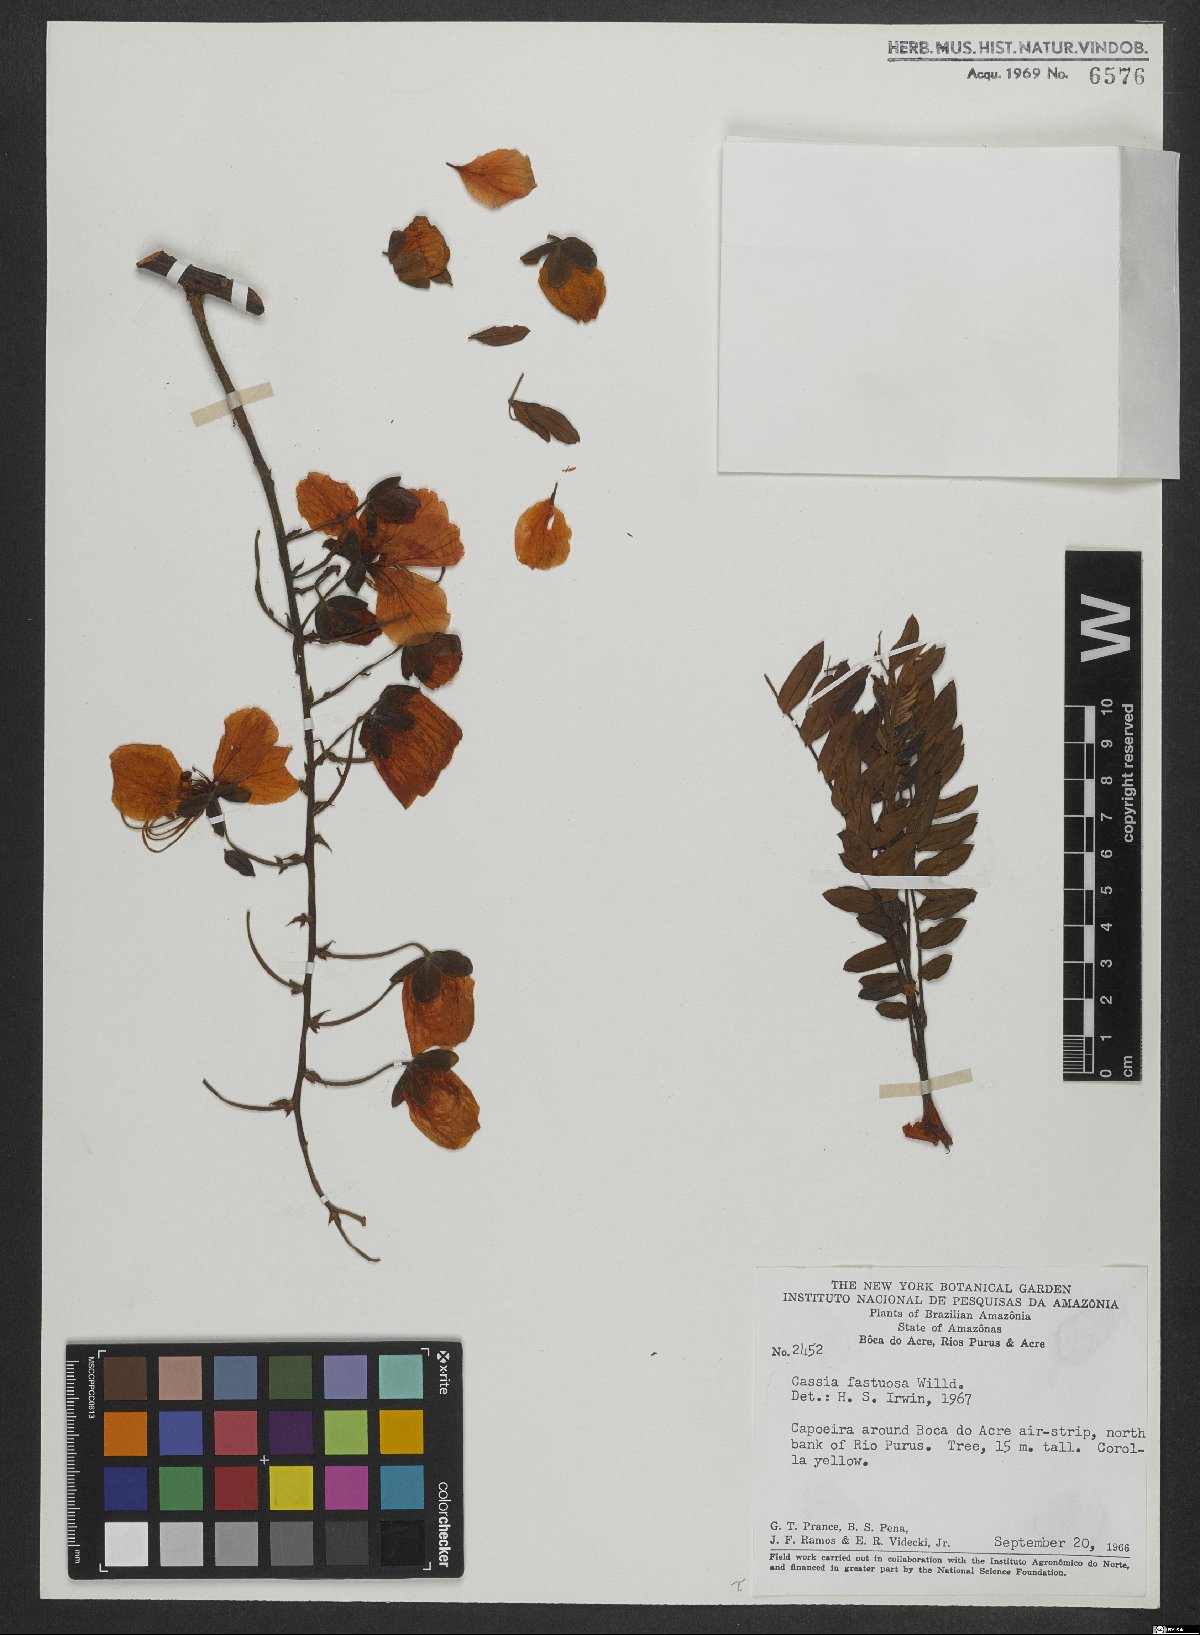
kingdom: Plantae
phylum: Tracheophyta
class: Magnoliopsida
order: Fabales
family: Fabaceae
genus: Cassia
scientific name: Cassia fastuosa
